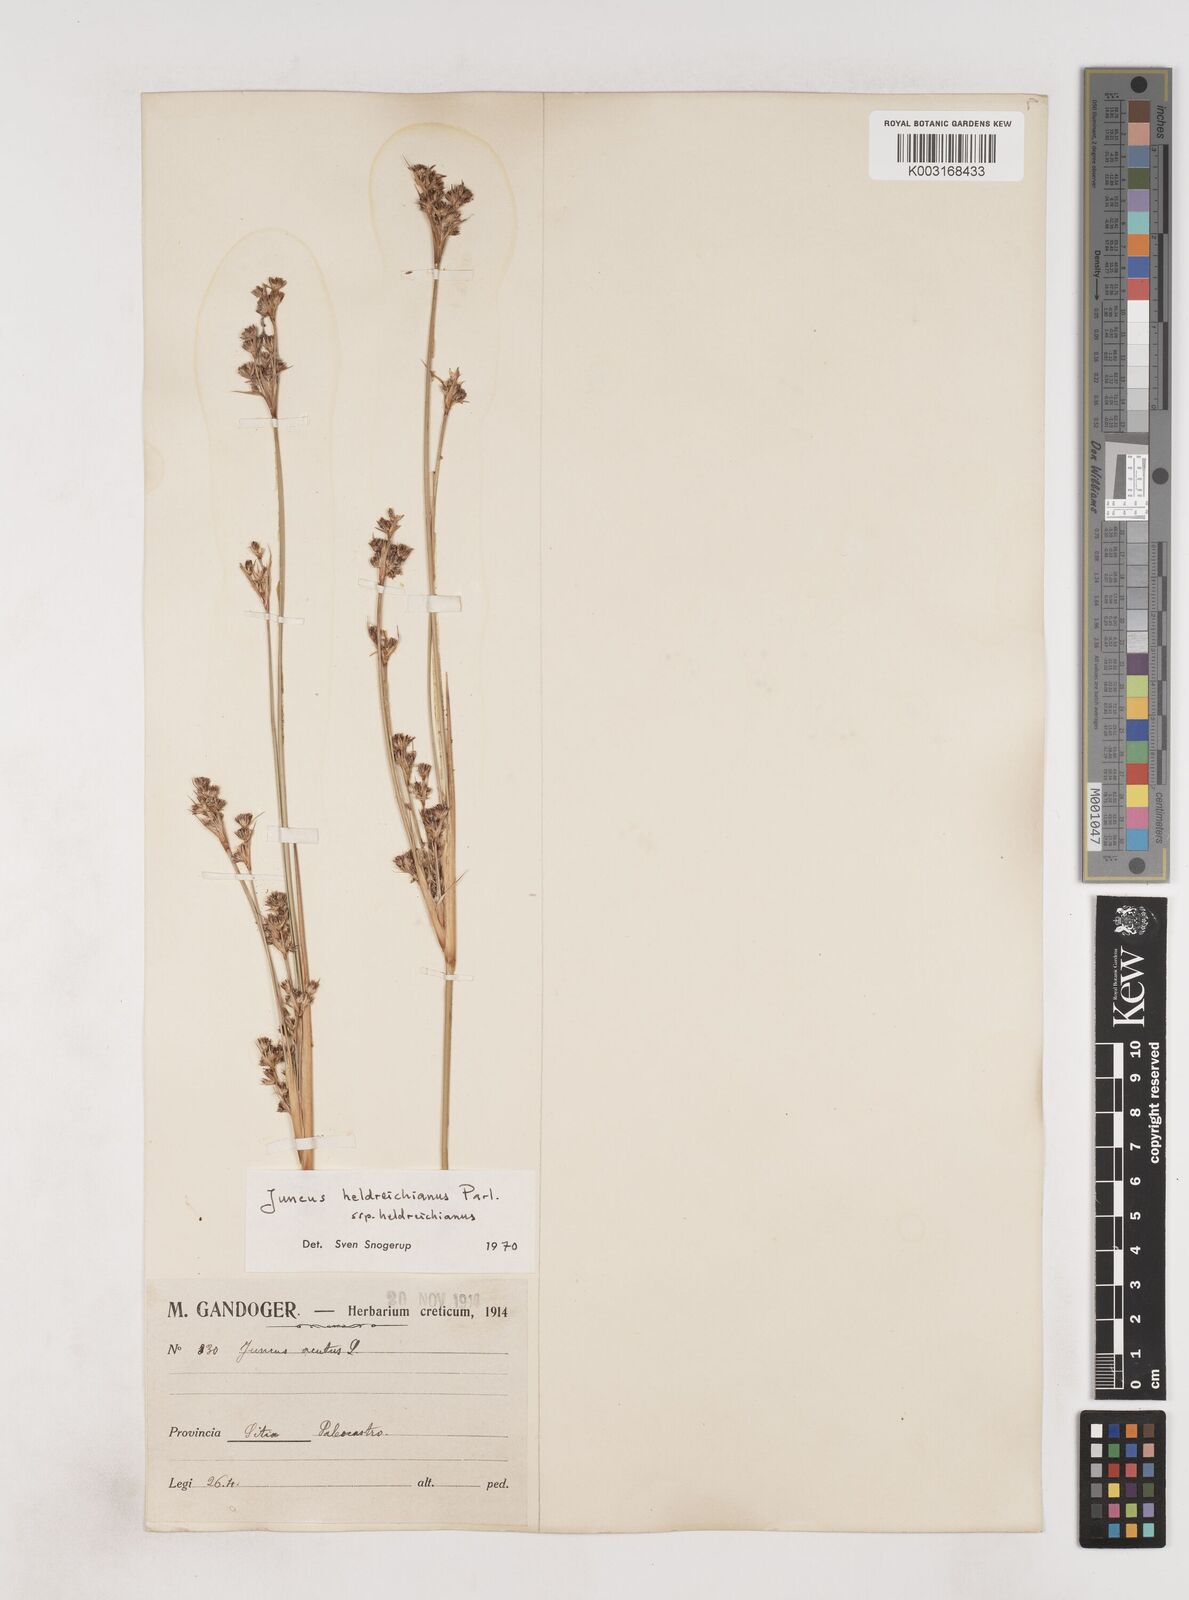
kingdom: Plantae
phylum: Tracheophyta
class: Liliopsida
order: Poales
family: Juncaceae
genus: Juncus
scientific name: Juncus heldreichianus
